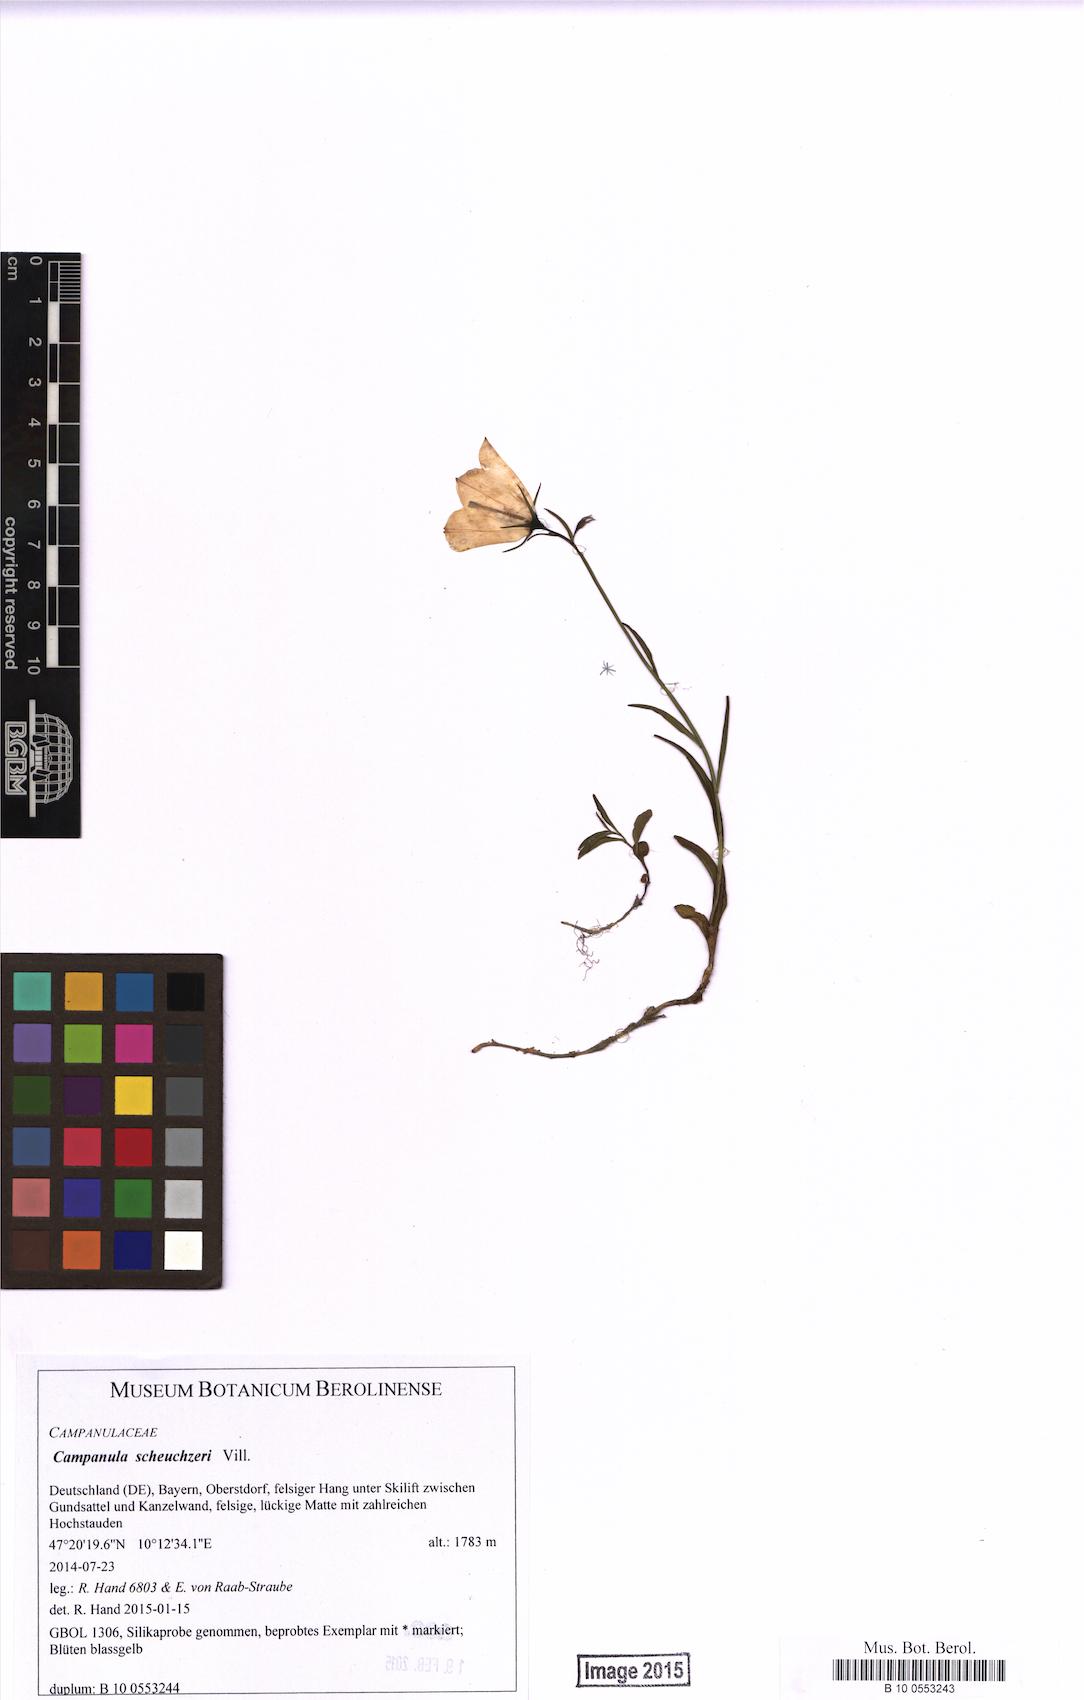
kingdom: Plantae
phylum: Tracheophyta
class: Magnoliopsida
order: Asterales
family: Campanulaceae
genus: Campanula
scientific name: Campanula thyrsoides
